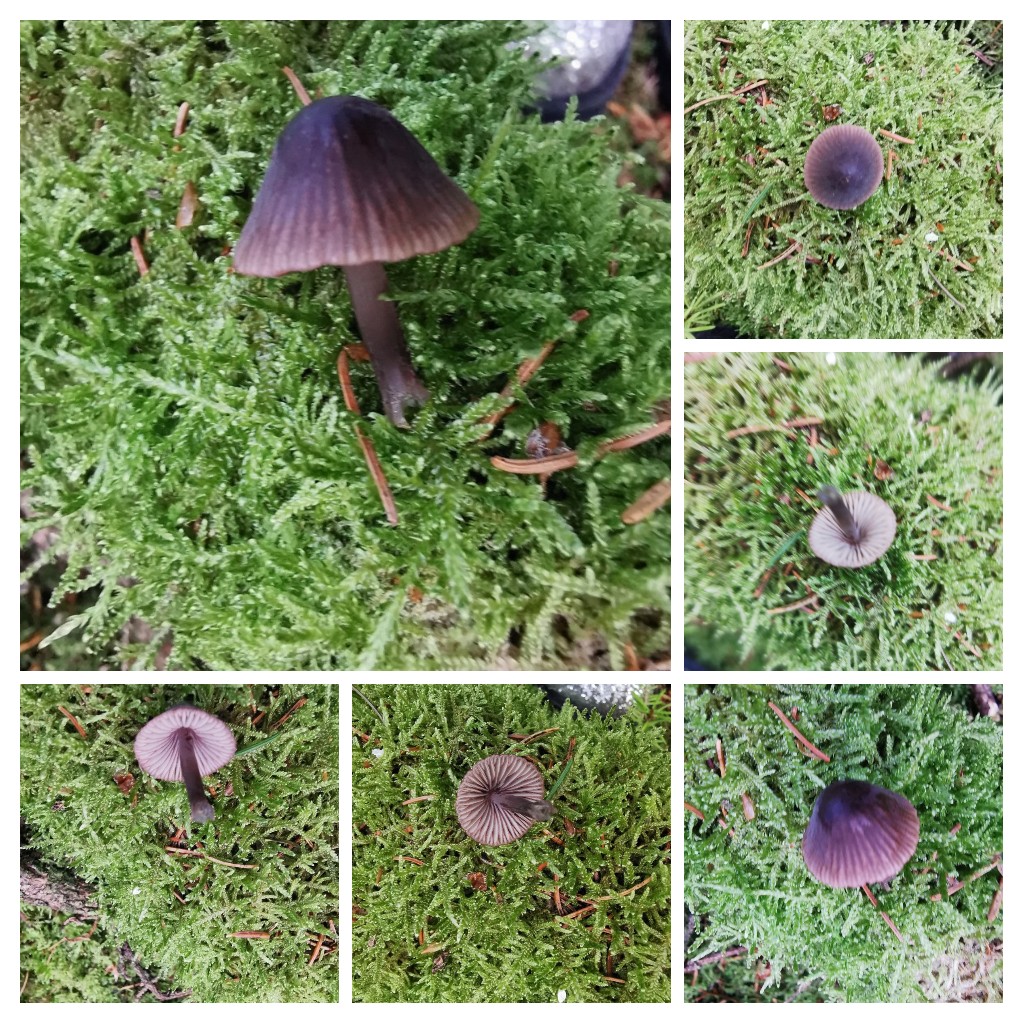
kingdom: Fungi
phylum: Basidiomycota
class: Agaricomycetes
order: Agaricales
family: Mycenaceae
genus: Mycena
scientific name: Mycena rubromarginata
